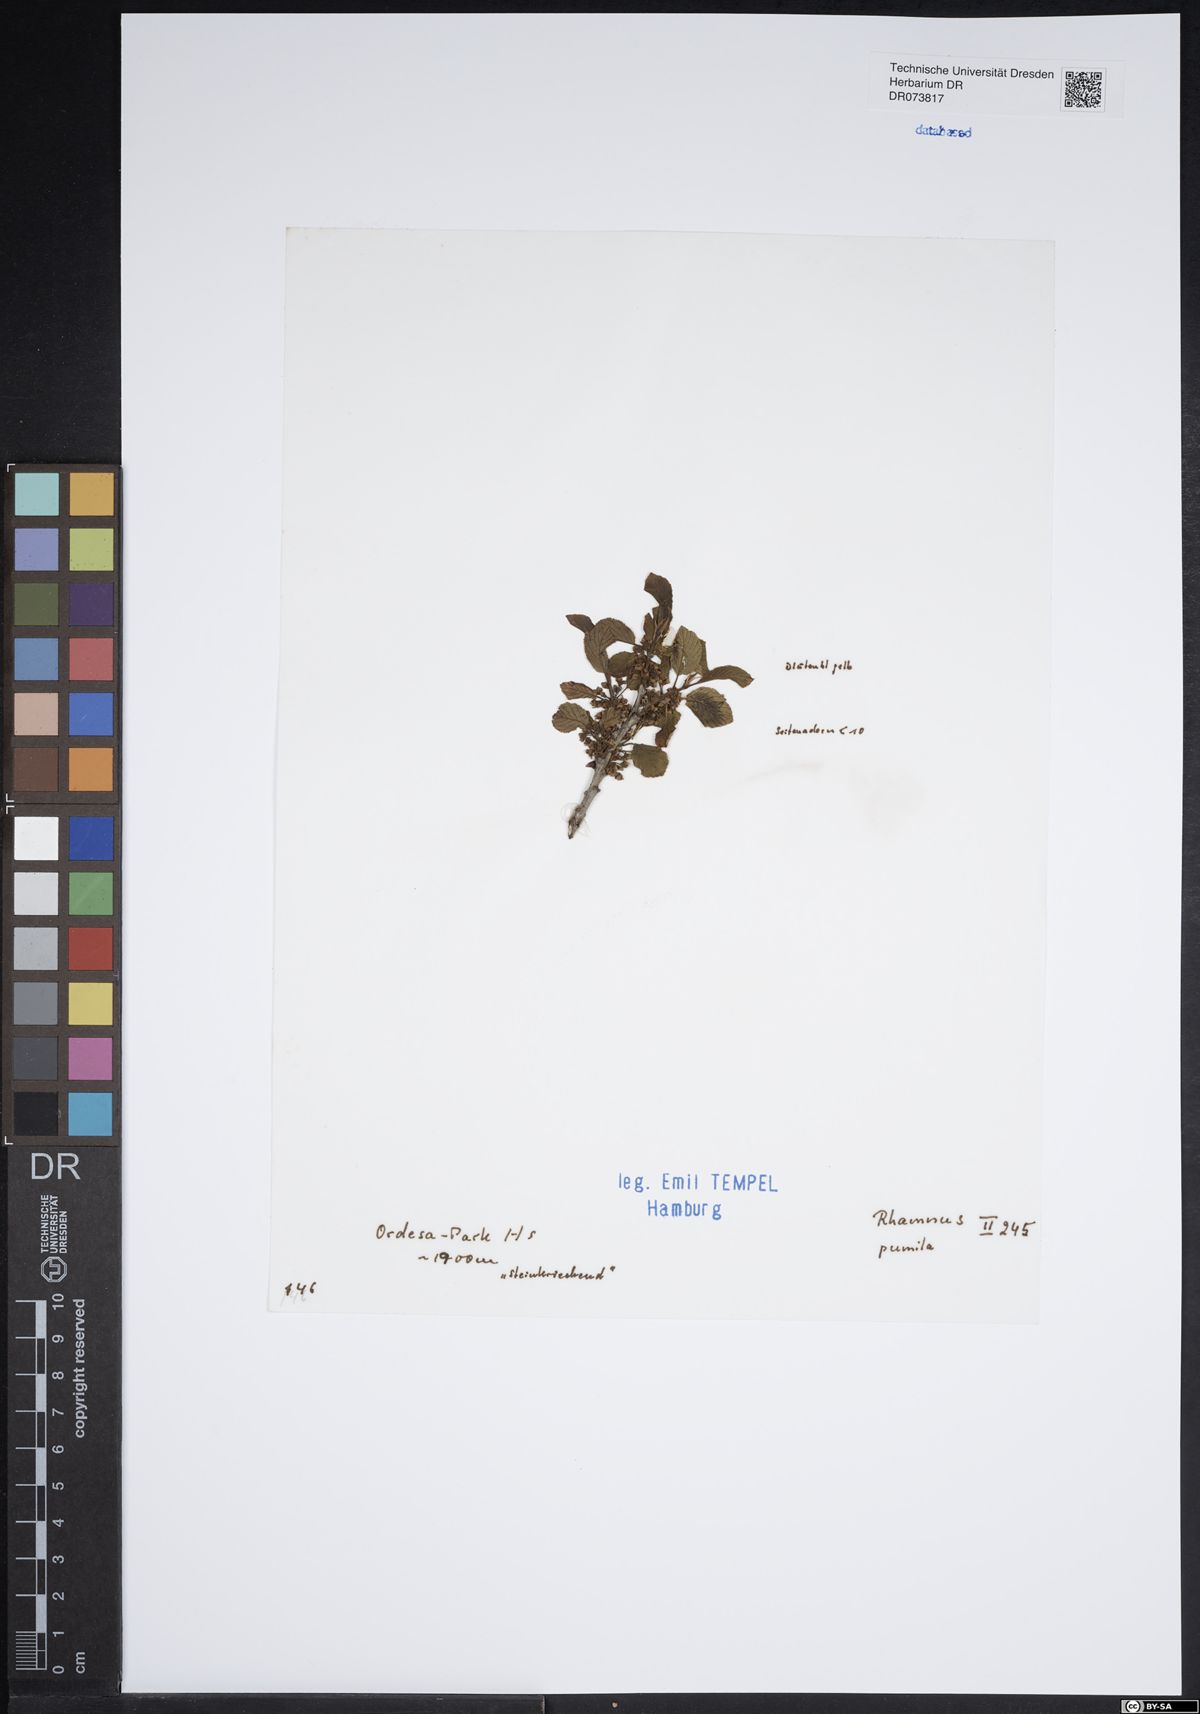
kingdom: Plantae
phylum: Tracheophyta
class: Magnoliopsida
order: Rosales
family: Rhamnaceae
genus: Atadinus
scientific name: Atadinus pumilus
